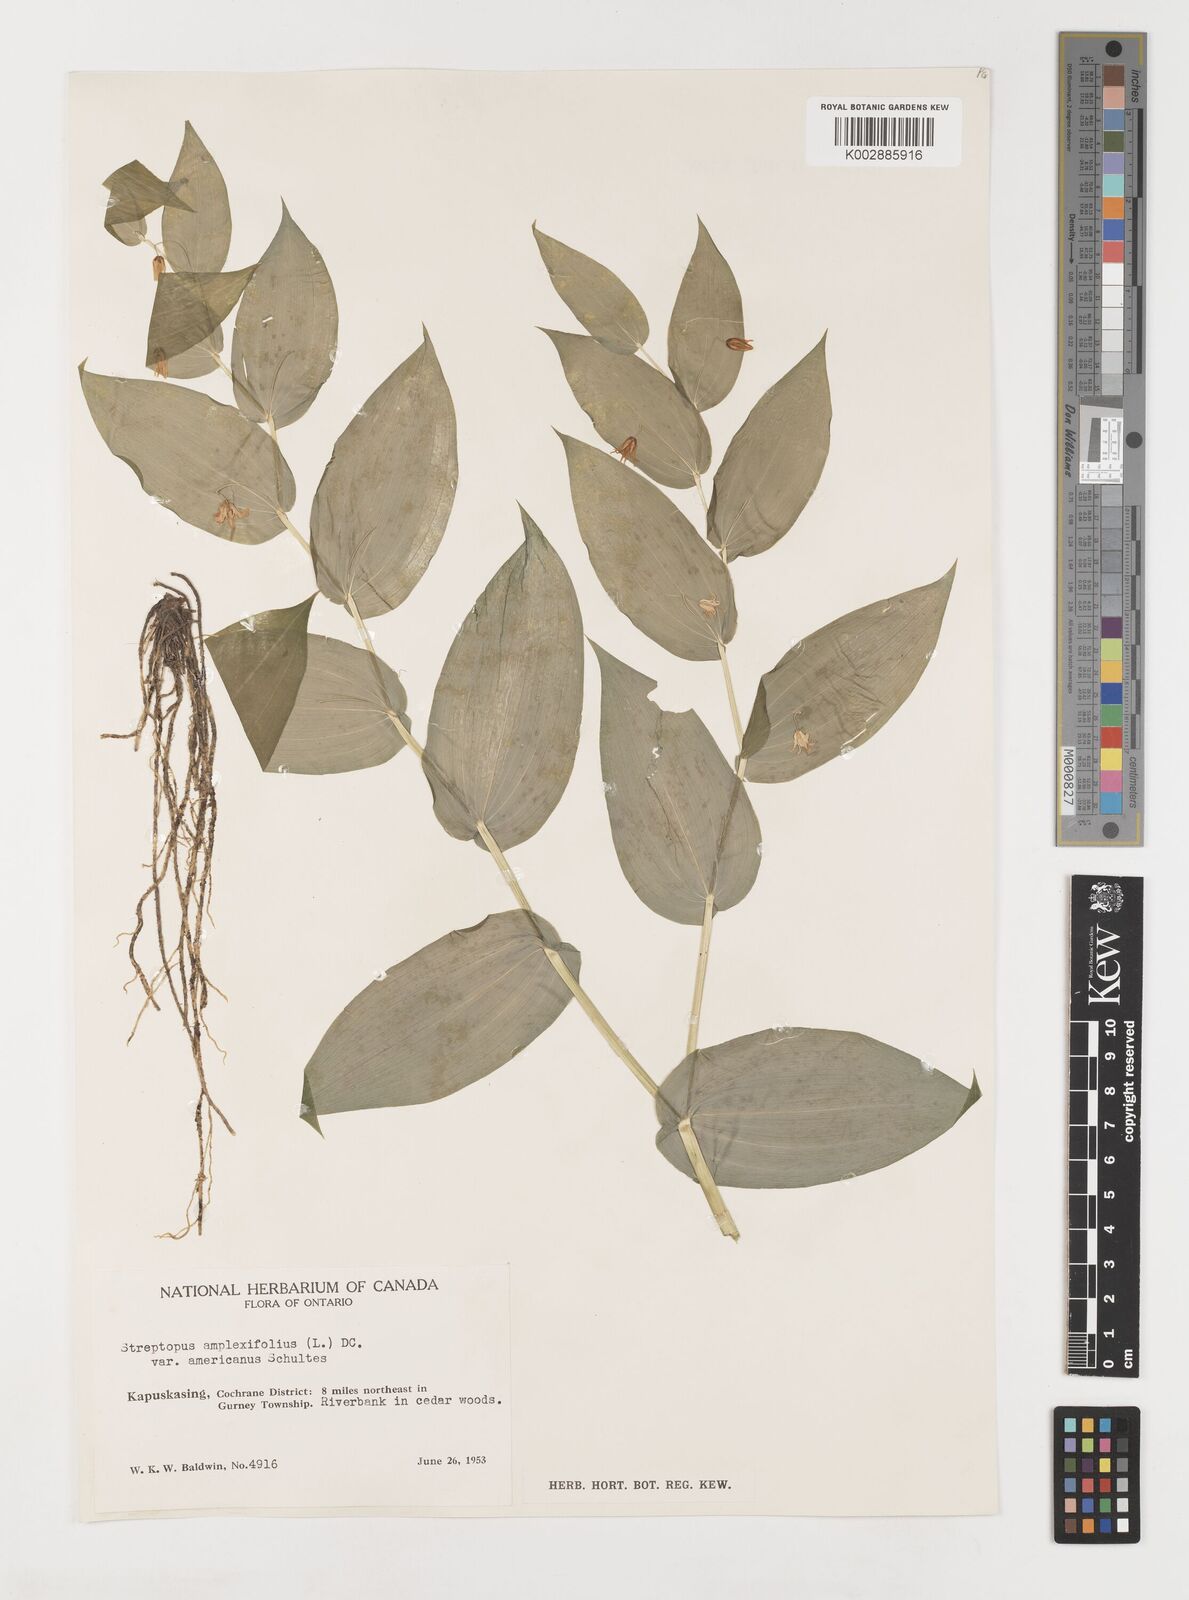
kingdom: Plantae
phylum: Tracheophyta
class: Liliopsida
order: Liliales
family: Liliaceae
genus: Streptopus
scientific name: Streptopus
